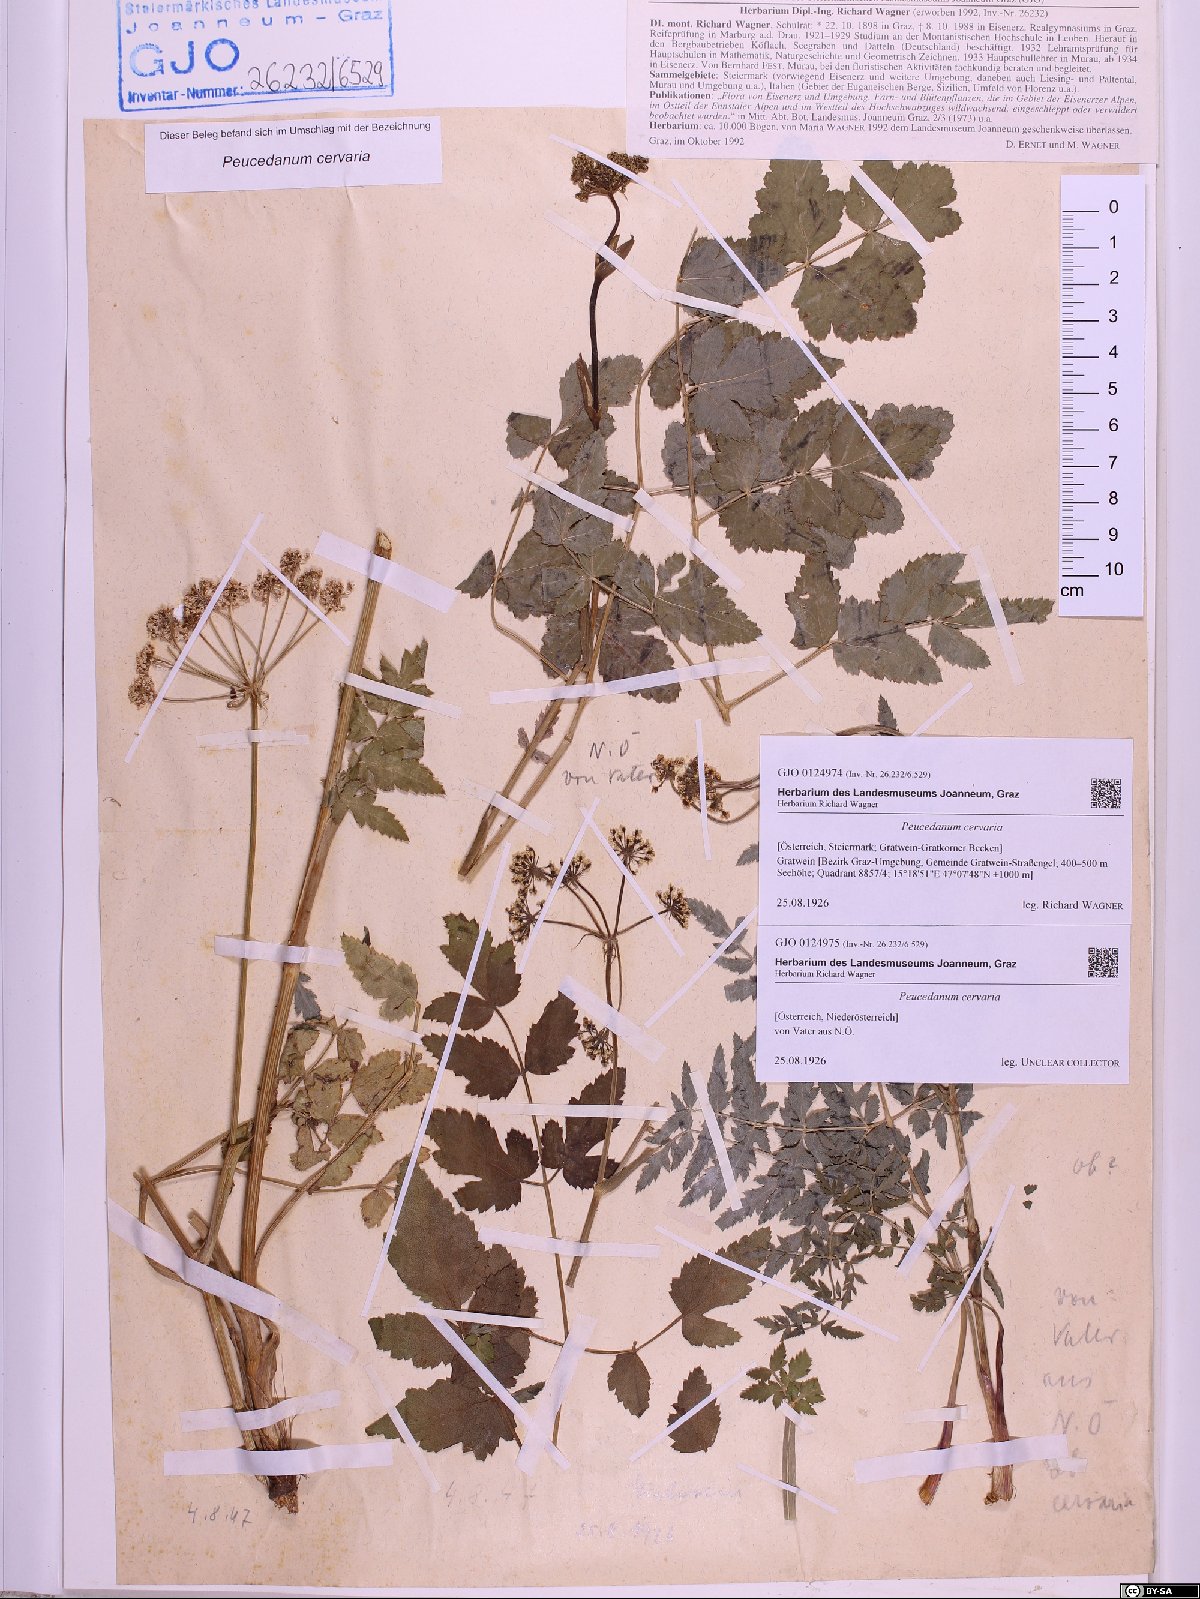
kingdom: Plantae
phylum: Tracheophyta
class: Magnoliopsida
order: Apiales
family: Apiaceae
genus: Cervaria
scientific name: Cervaria rivini
